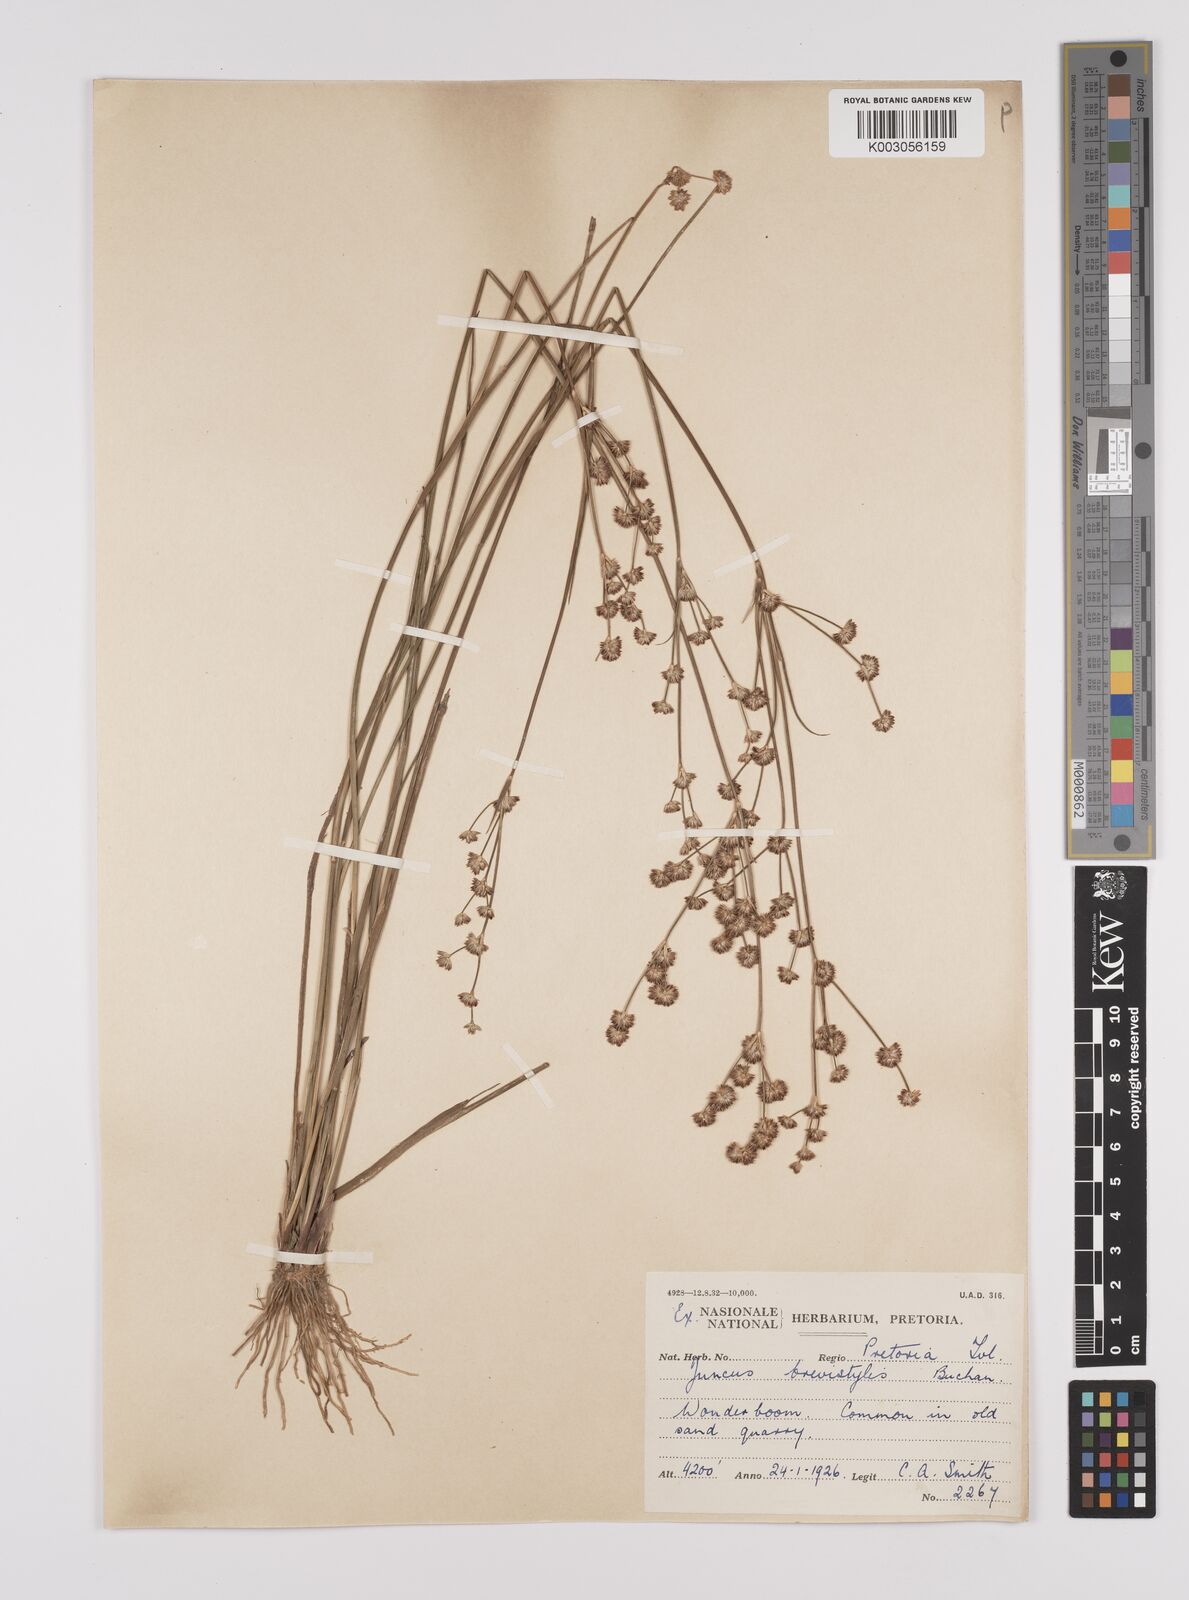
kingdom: Plantae
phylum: Tracheophyta
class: Liliopsida
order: Poales
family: Juncaceae
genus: Juncus
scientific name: Juncus
